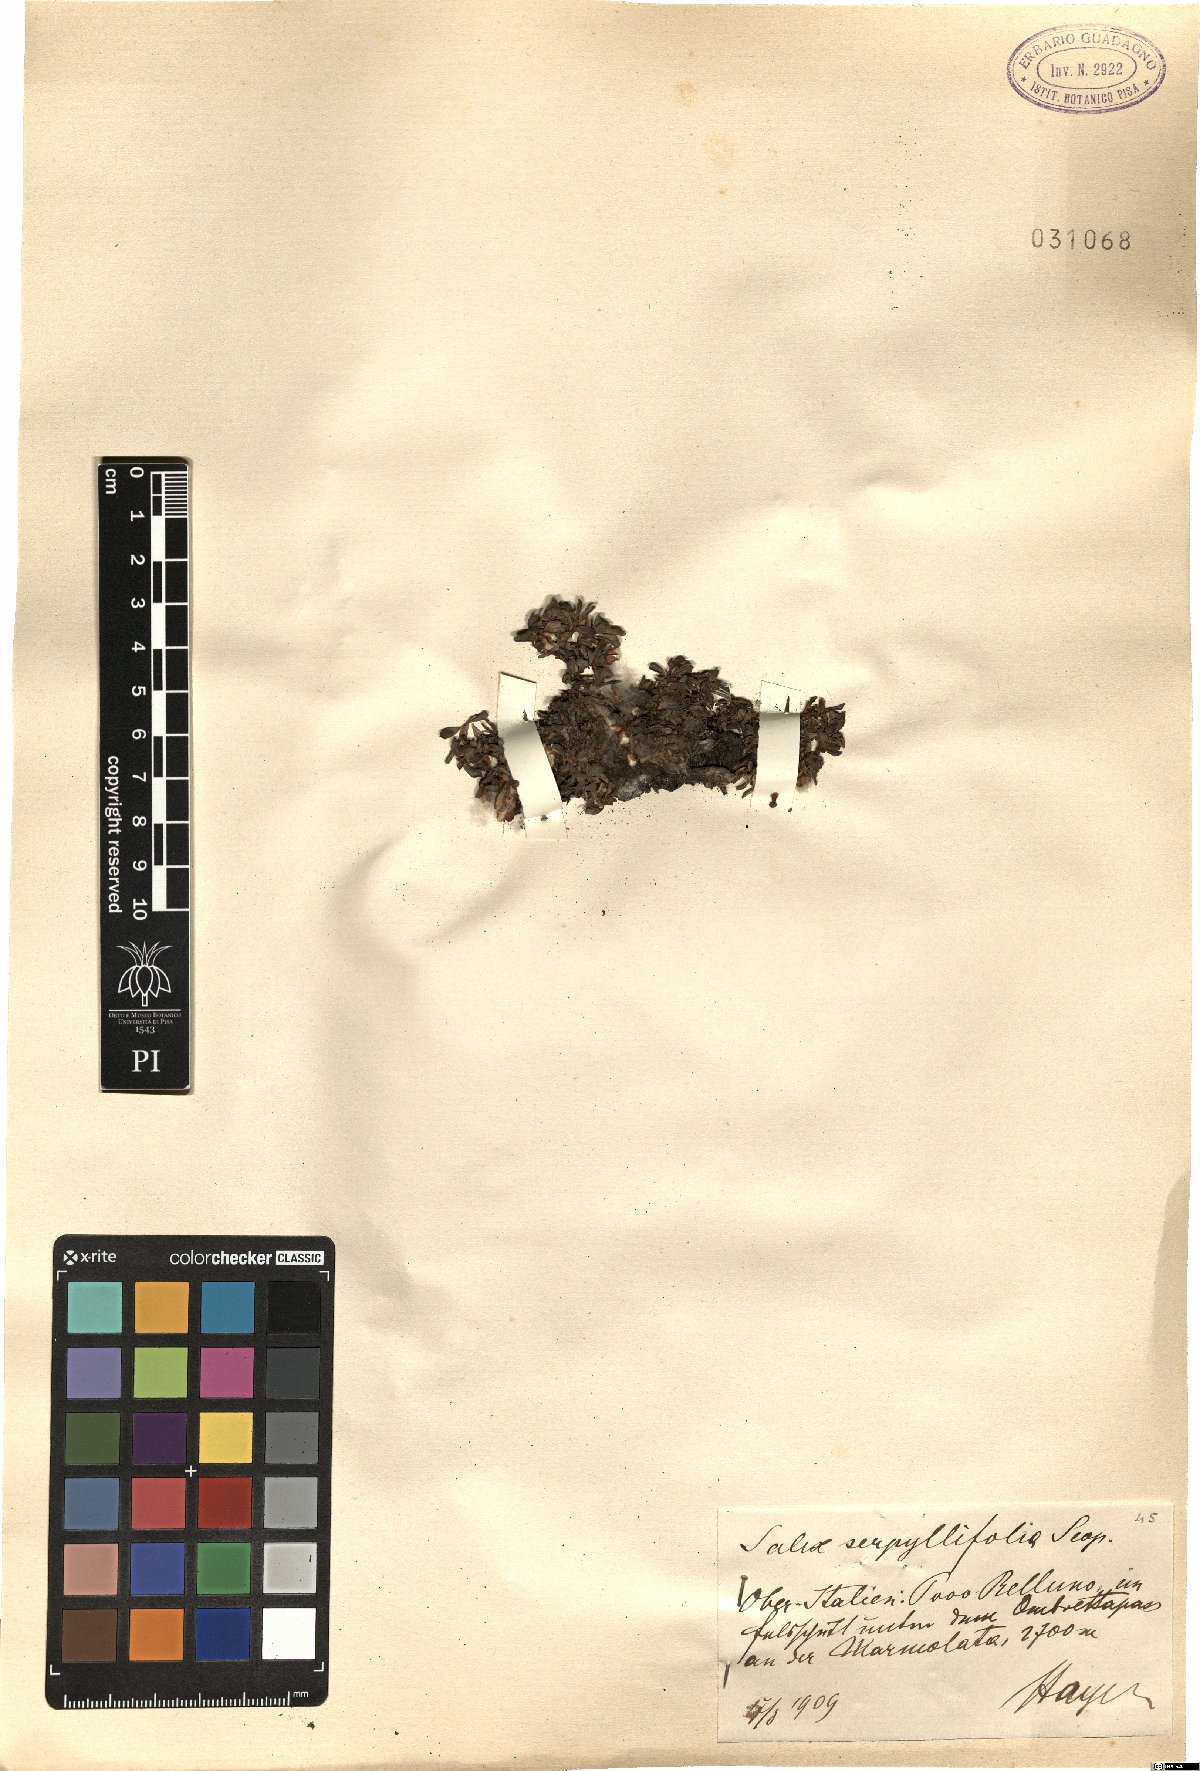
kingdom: Plantae
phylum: Tracheophyta
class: Magnoliopsida
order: Malpighiales
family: Salicaceae
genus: Salix
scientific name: Salix serpillifolia
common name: Thyme-leaf willow
